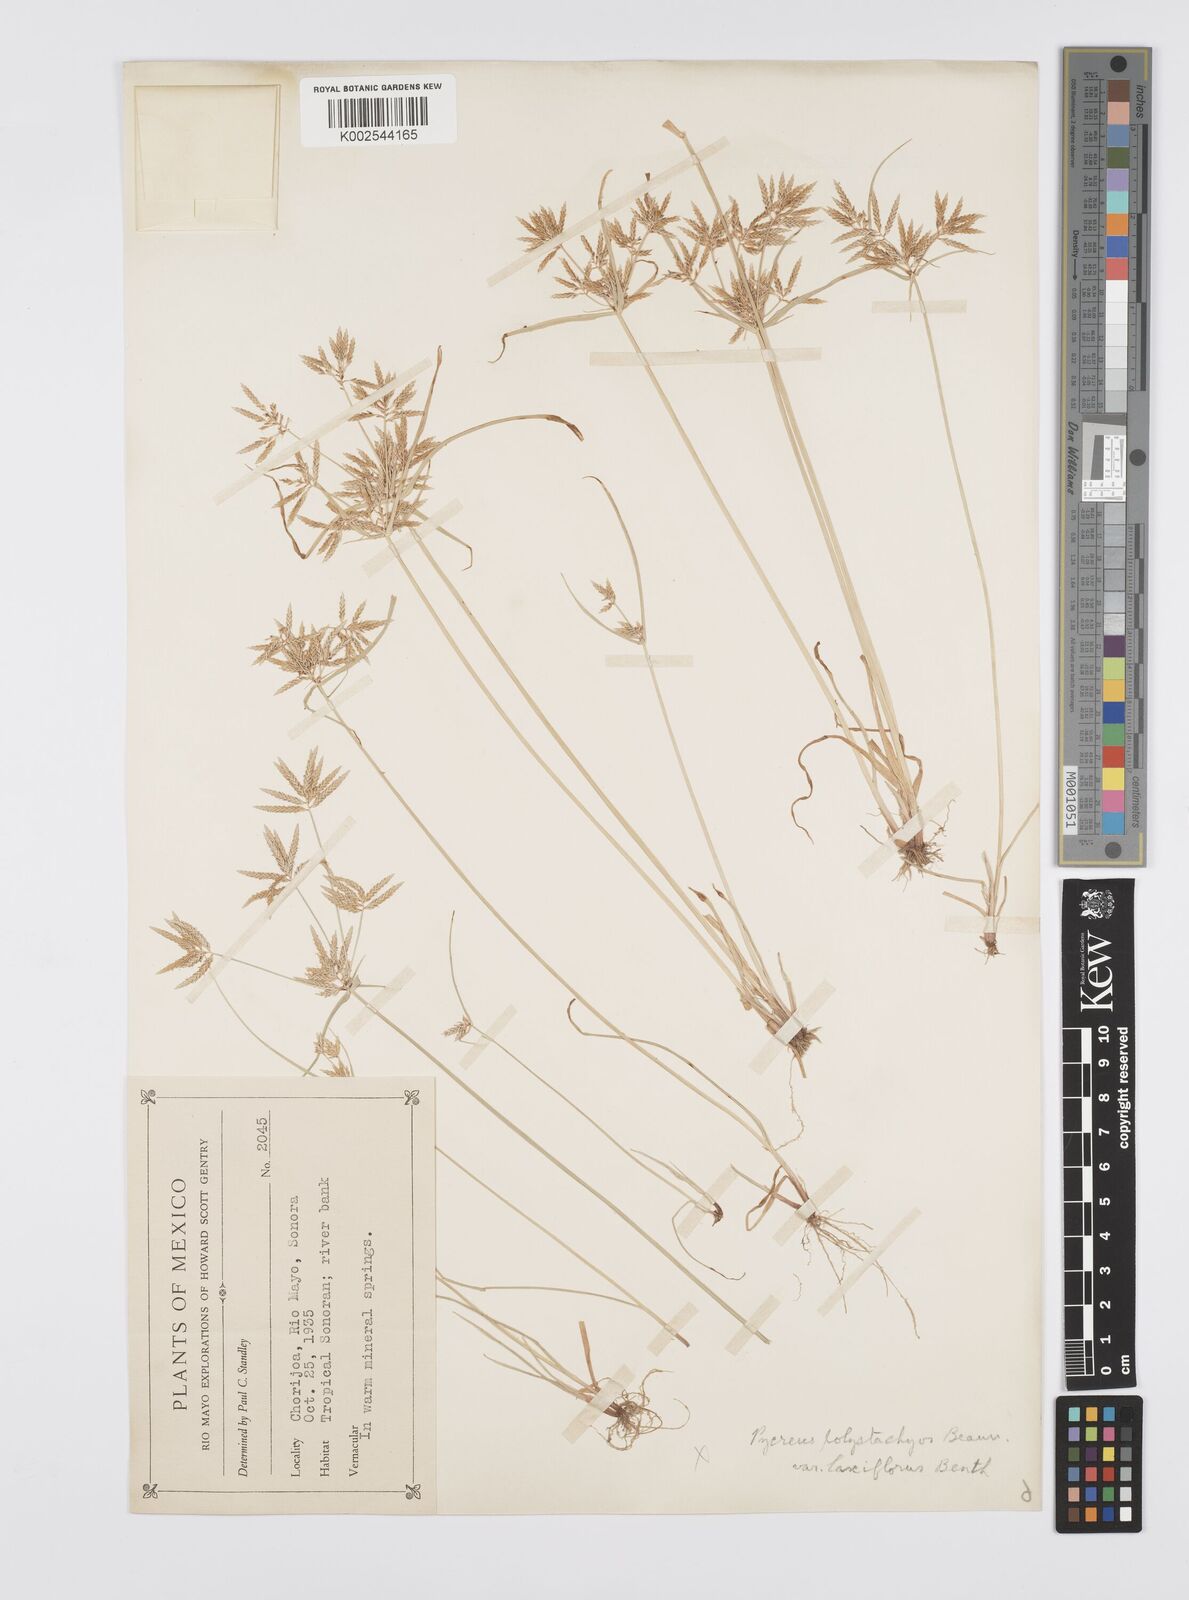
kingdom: Plantae
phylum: Tracheophyta
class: Liliopsida
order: Poales
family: Cyperaceae
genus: Cyperus
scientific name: Cyperus polystachyos
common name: Bunchy flat sedge
